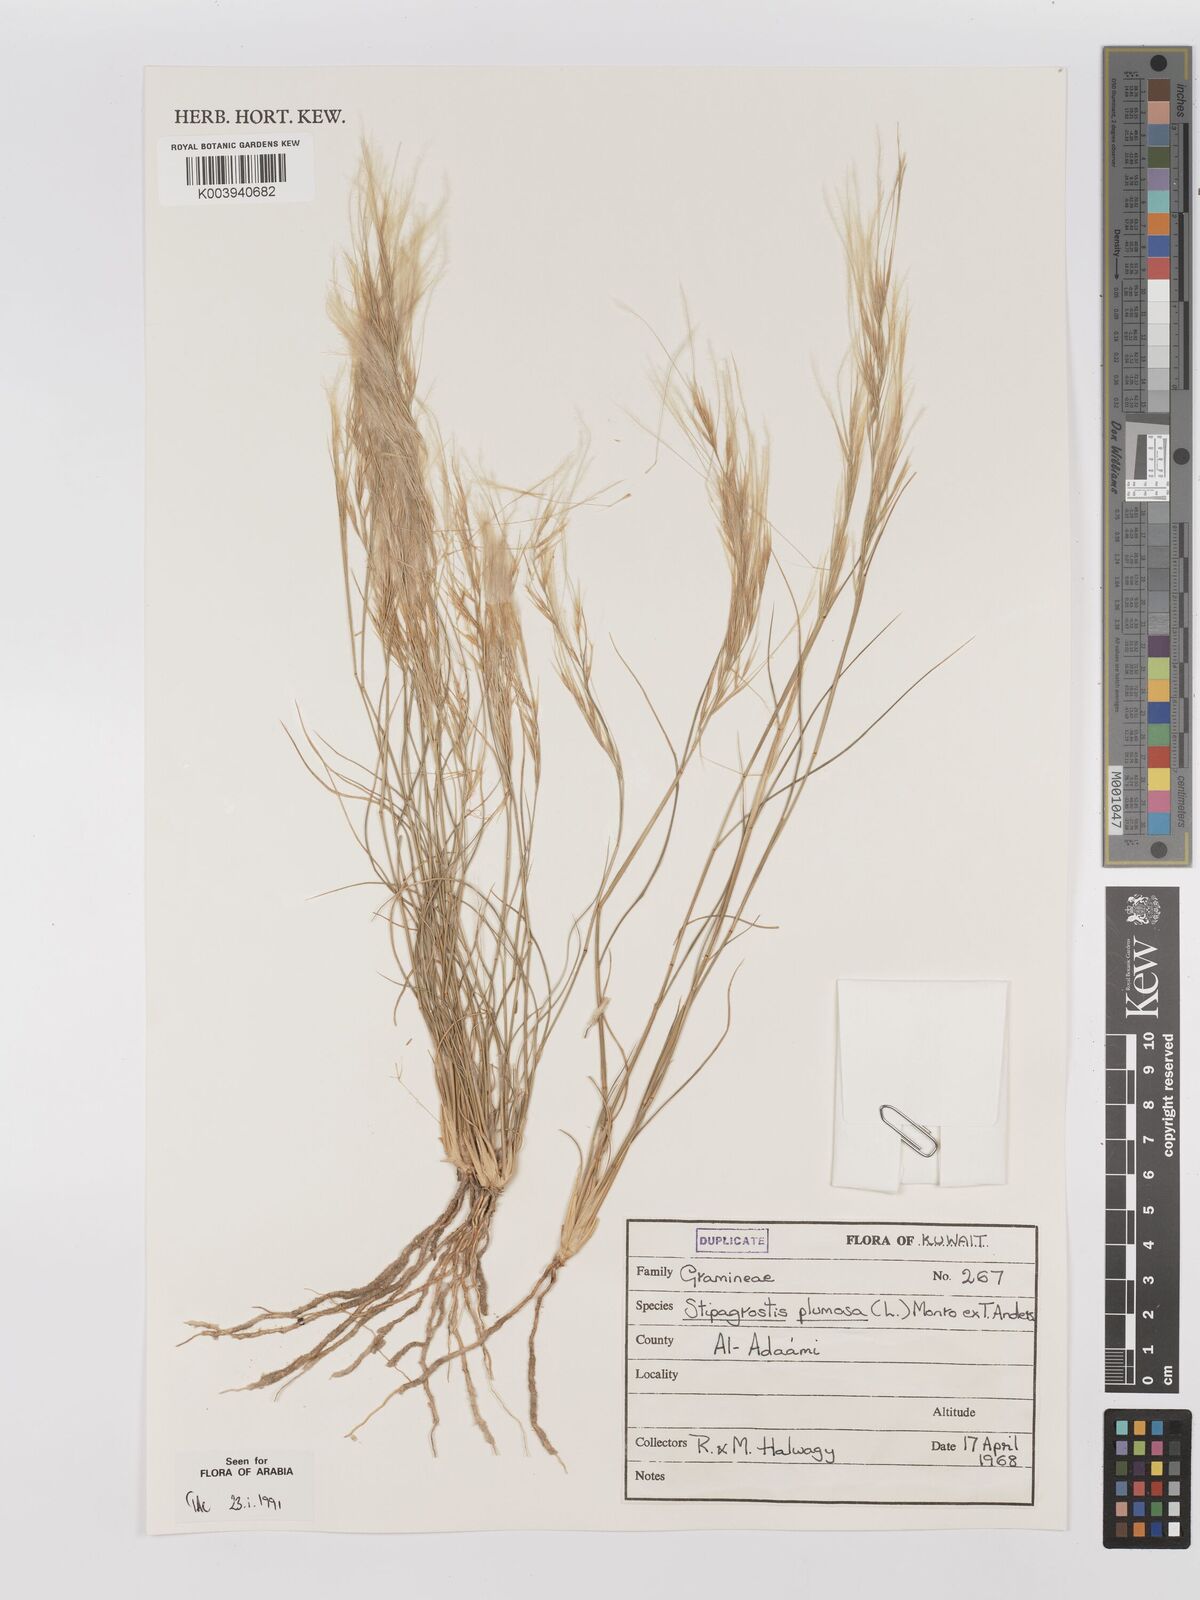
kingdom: Plantae
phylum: Tracheophyta
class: Liliopsida
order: Poales
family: Poaceae
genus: Stipagrostis
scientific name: Stipagrostis plumosa
